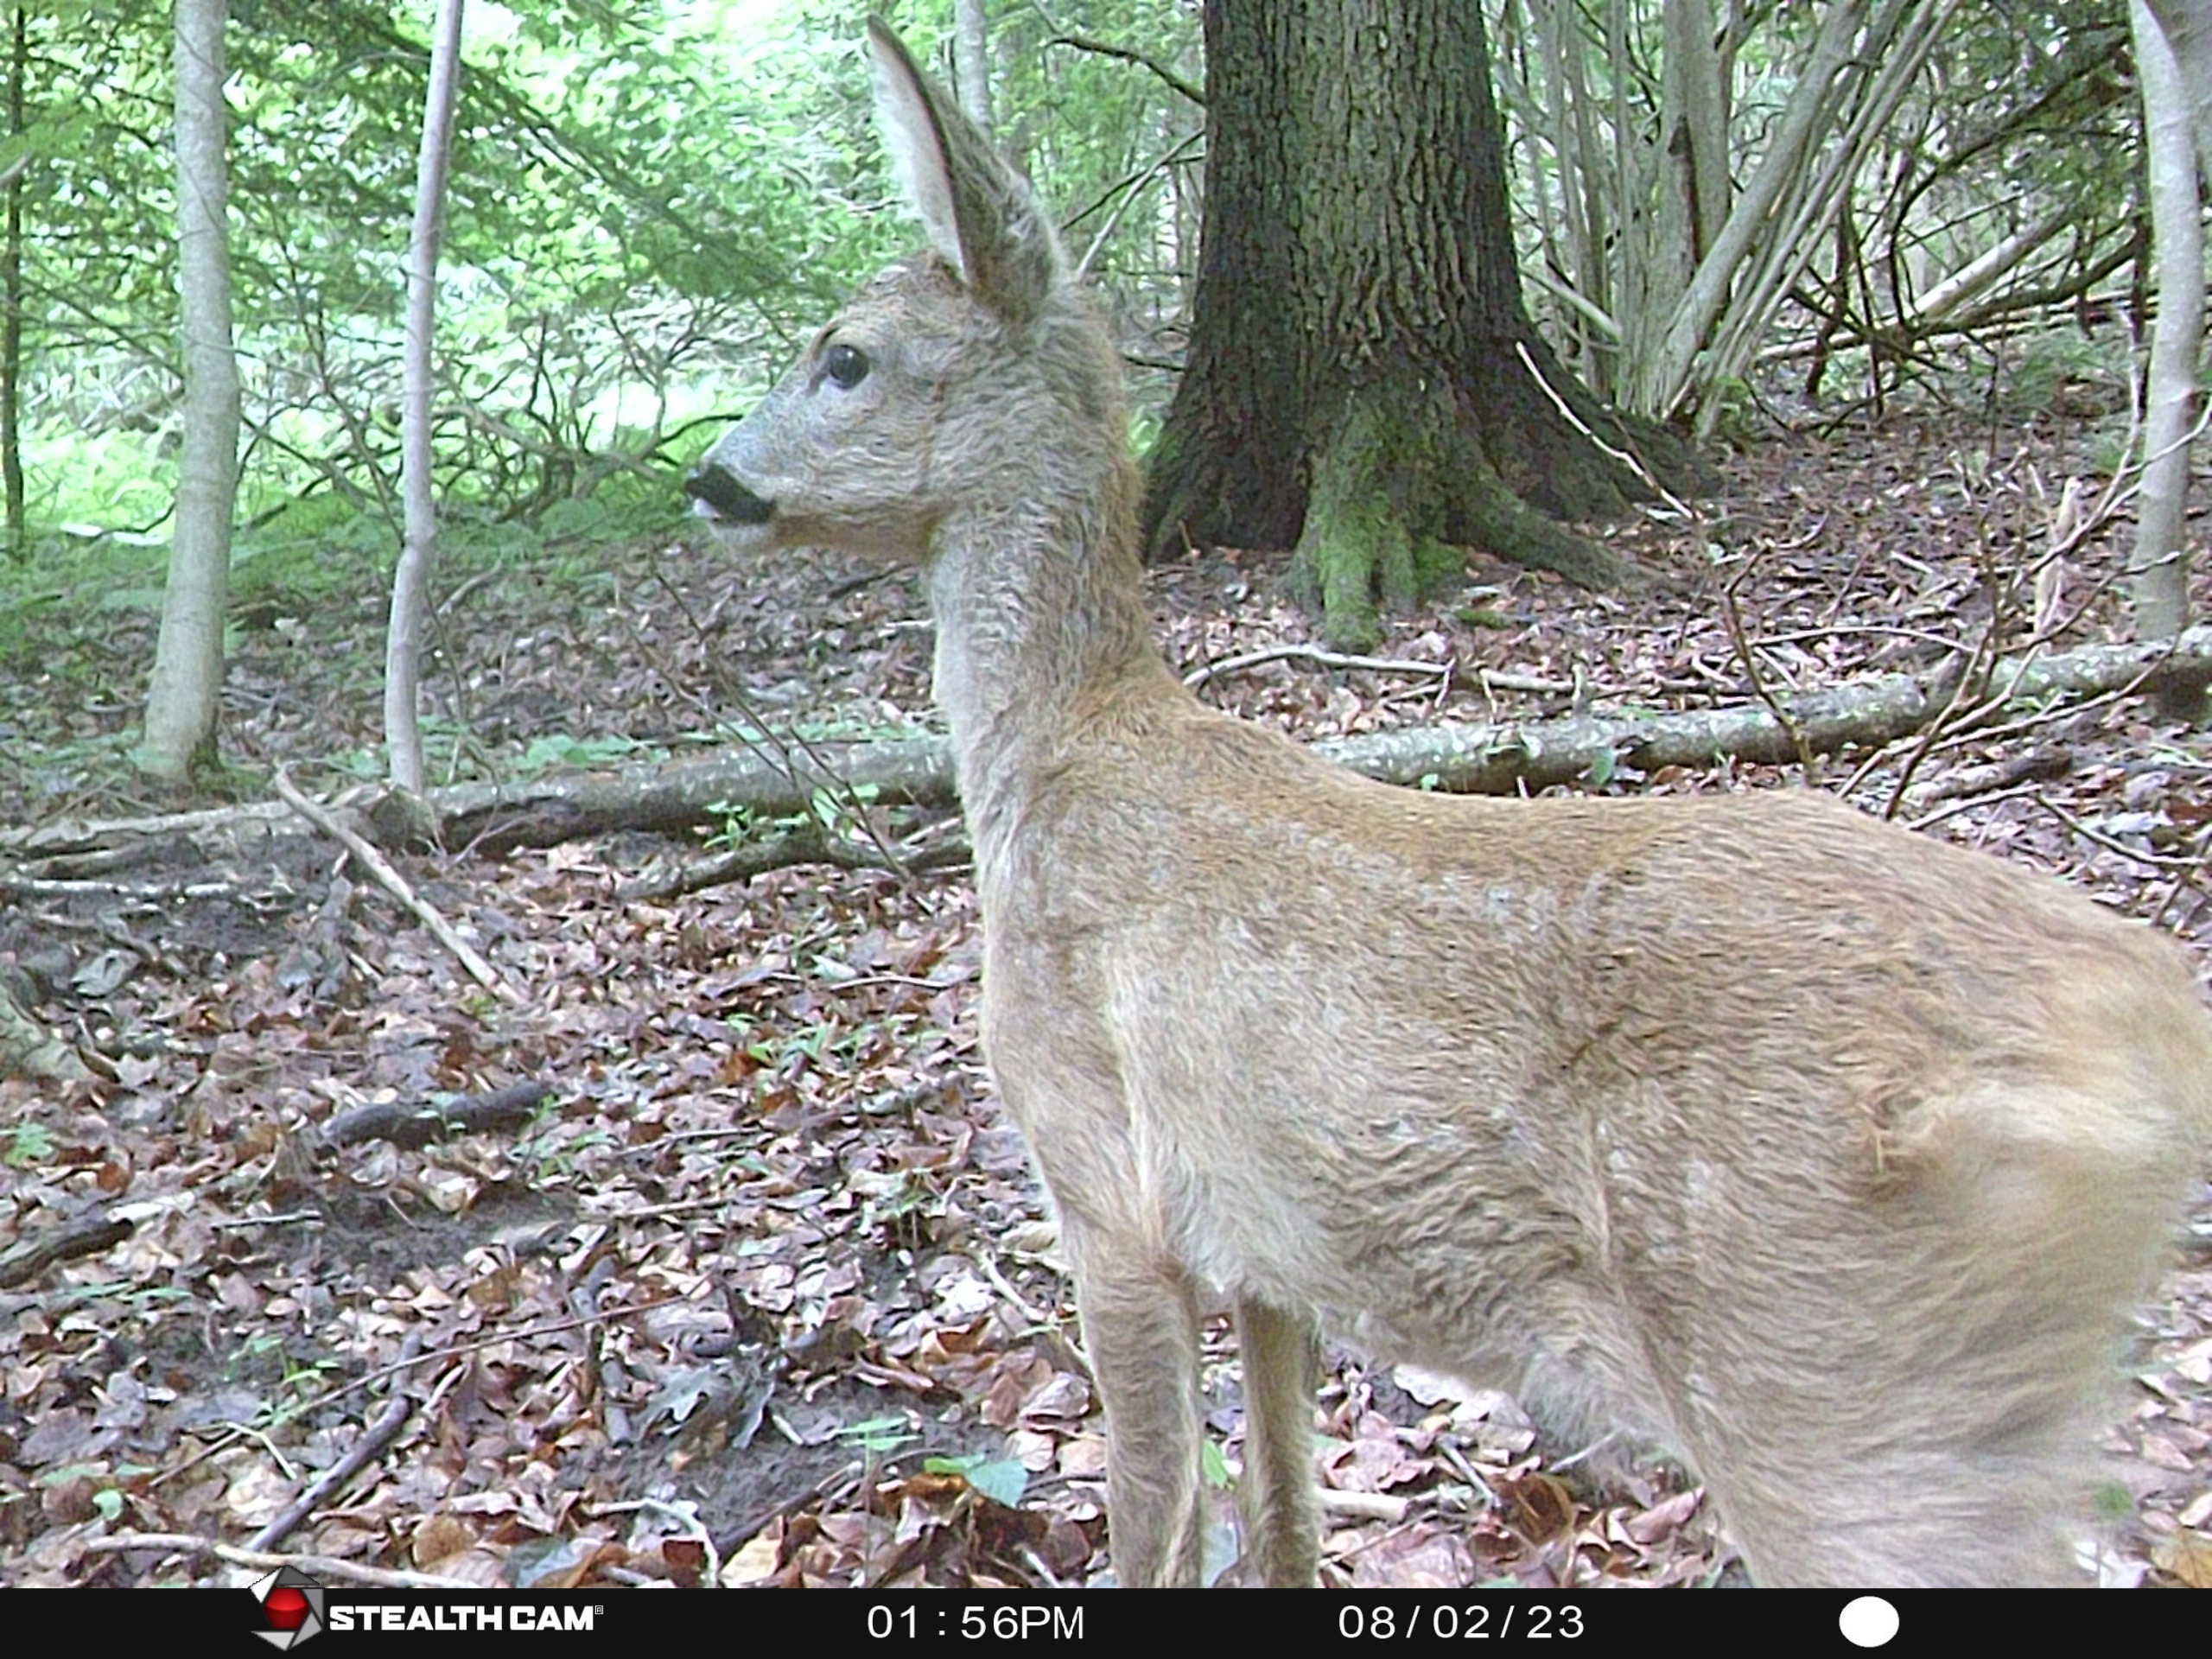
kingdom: Animalia
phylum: Chordata
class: Mammalia
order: Artiodactyla
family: Cervidae
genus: Capreolus
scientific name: Capreolus capreolus
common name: Rådyr
